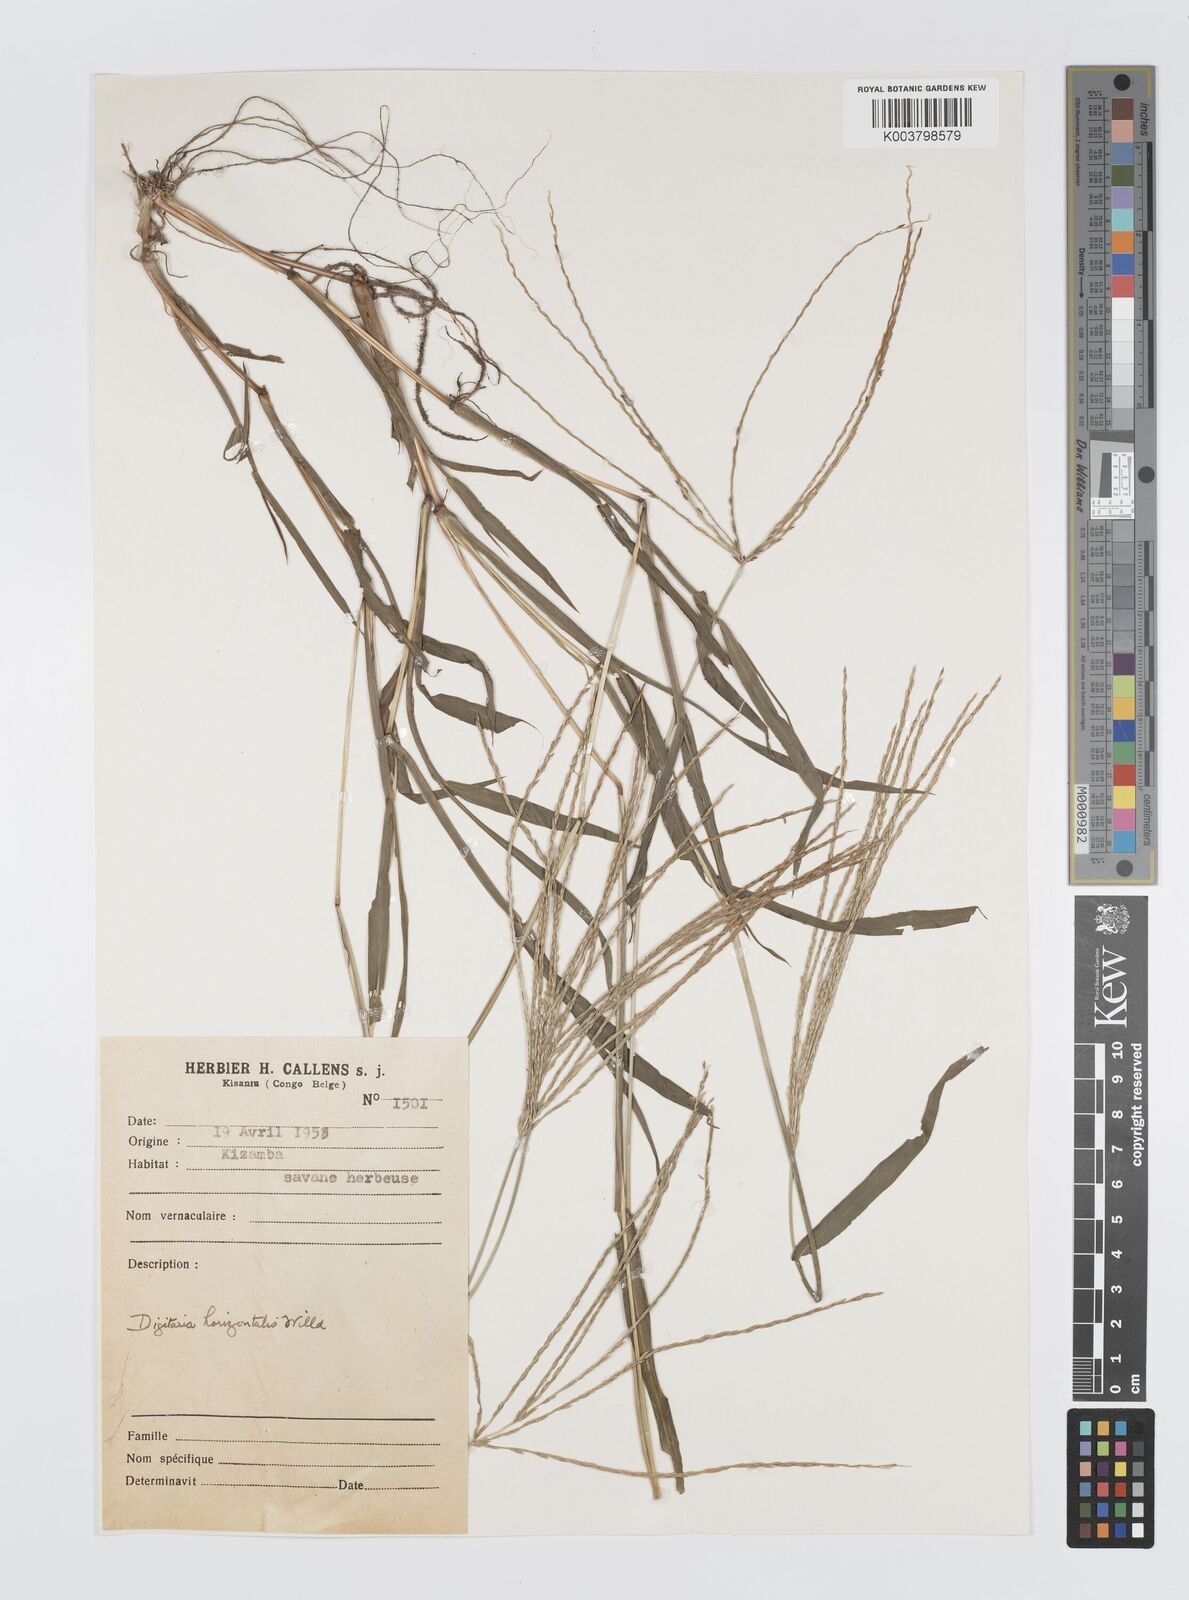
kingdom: Plantae
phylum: Tracheophyta
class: Liliopsida
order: Poales
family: Poaceae
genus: Digitaria
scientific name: Digitaria nuda
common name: Naked crabgrass
